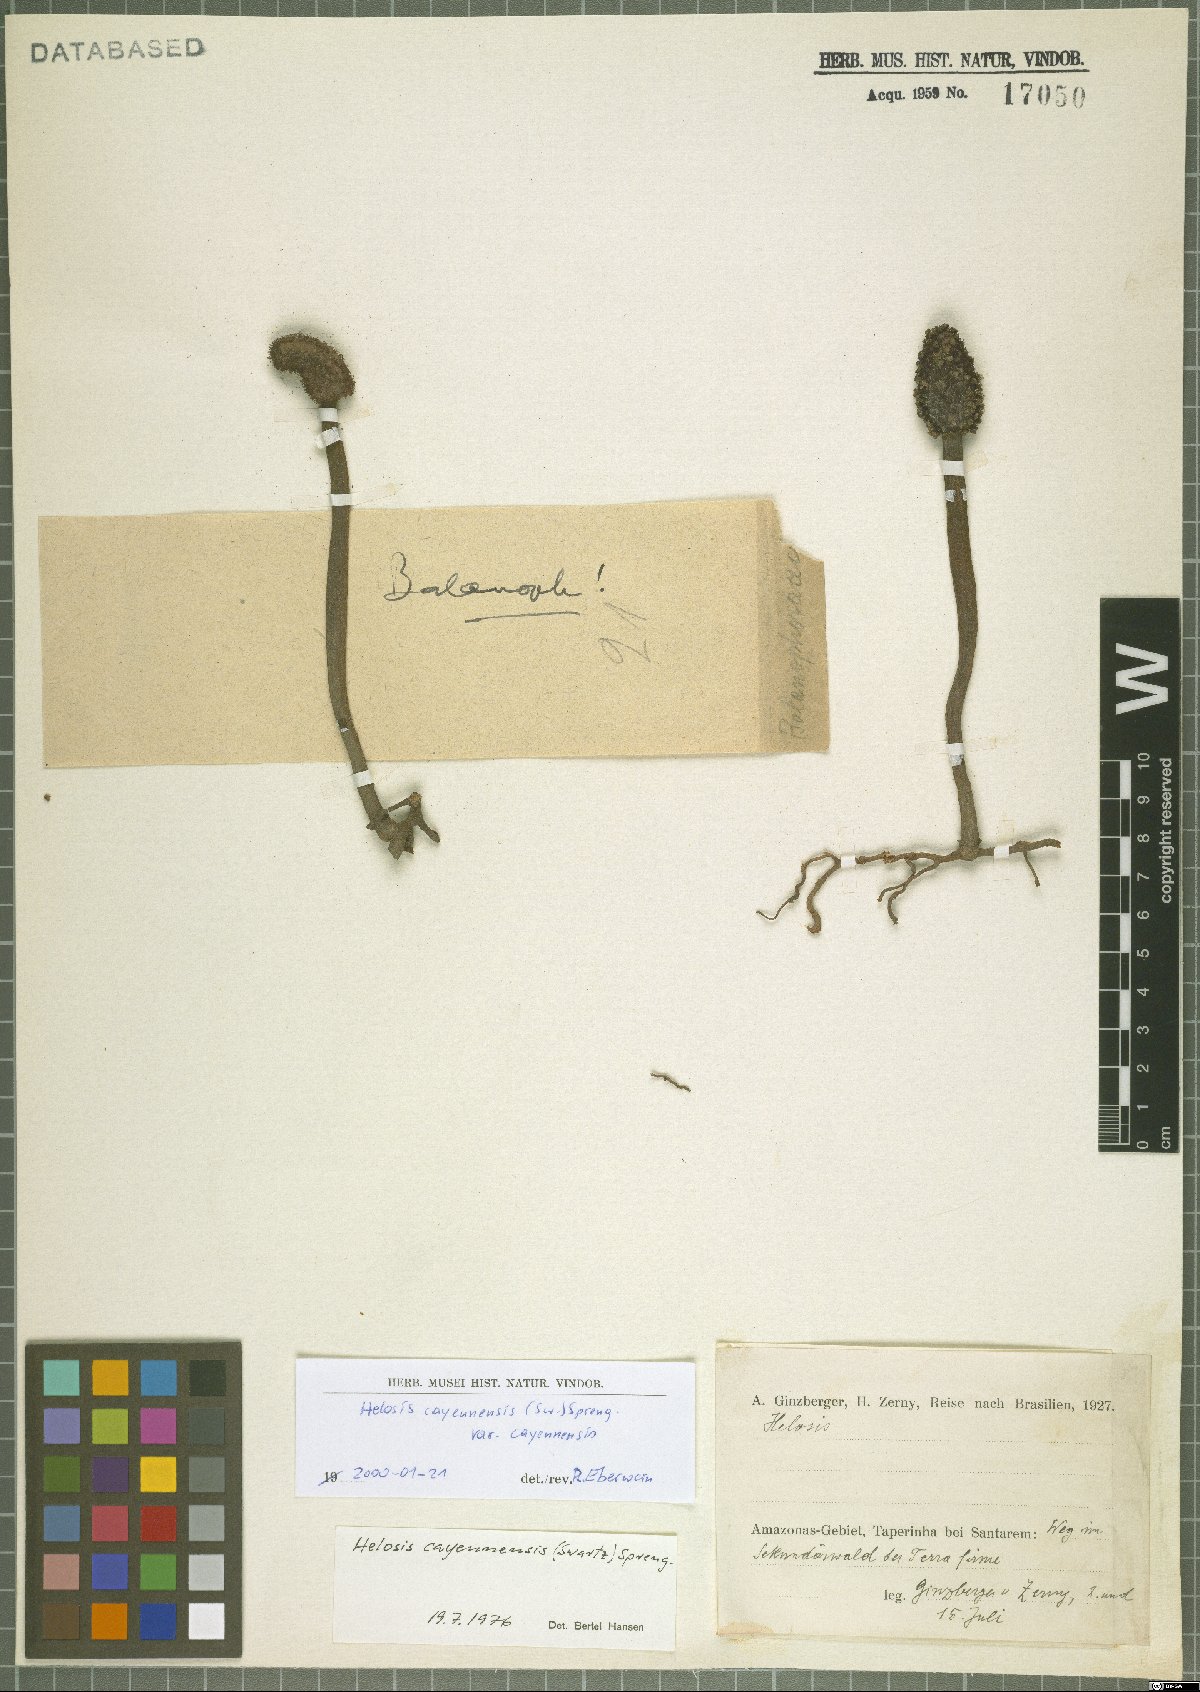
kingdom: Plantae
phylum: Tracheophyta
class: Magnoliopsida
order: Santalales
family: Balanophoraceae
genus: Helosis
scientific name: Helosis cayennensis
